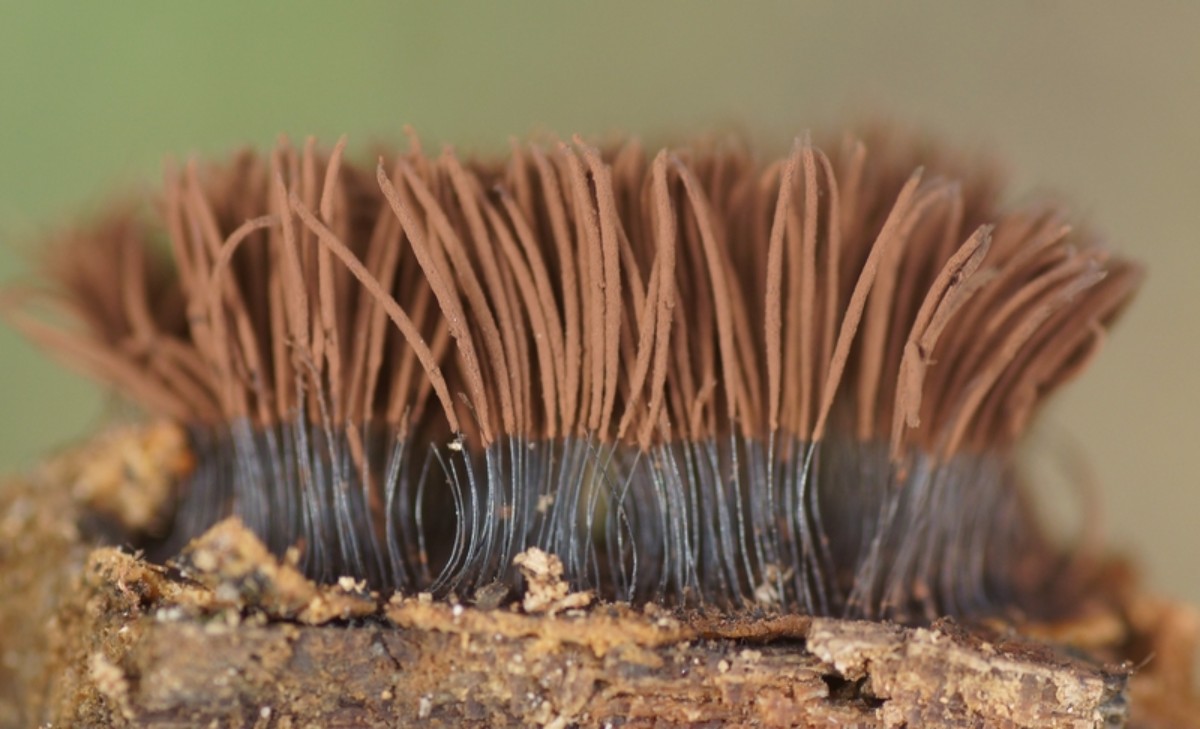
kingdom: Protozoa
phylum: Mycetozoa
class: Myxomycetes
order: Stemonitidales
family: Stemonitidaceae
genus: Stemonitis
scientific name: Stemonitis
